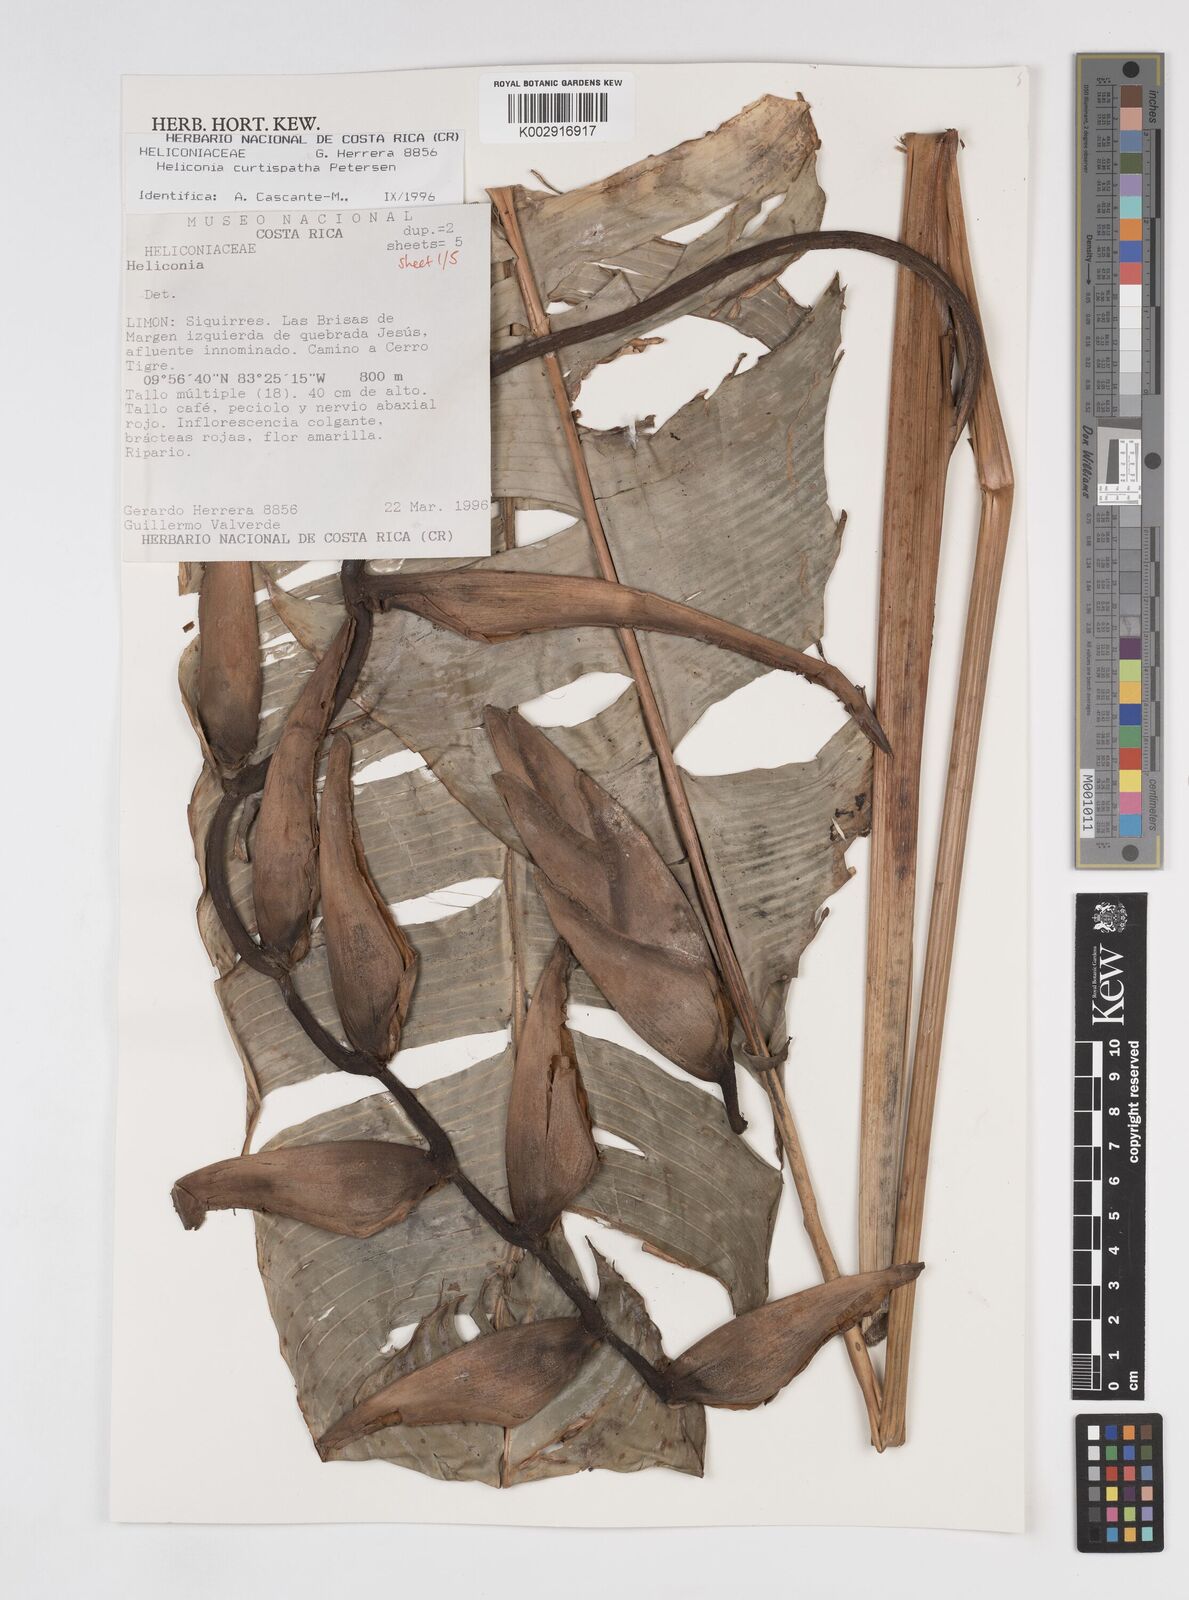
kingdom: Plantae
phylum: Tracheophyta
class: Liliopsida
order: Zingiberales
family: Heliconiaceae
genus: Heliconia
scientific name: Heliconia curtispatha
